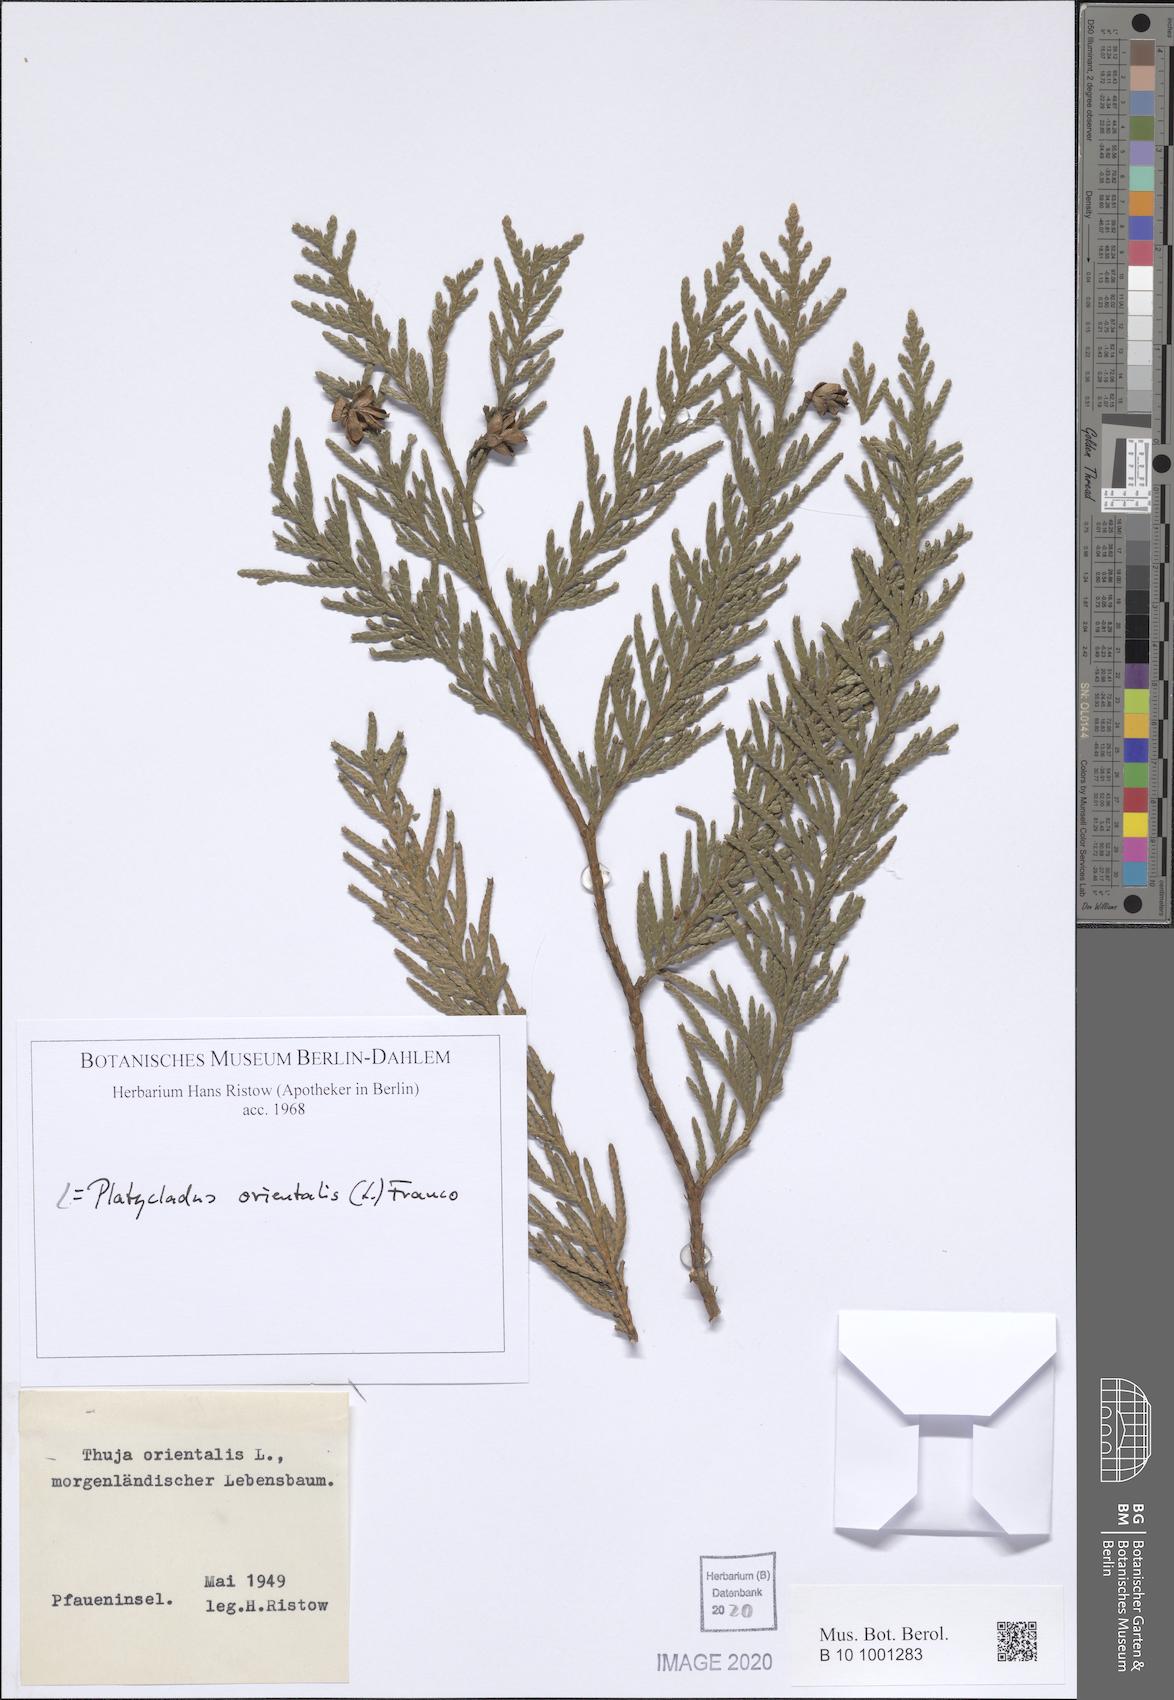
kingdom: Plantae
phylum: Tracheophyta
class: Pinopsida
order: Pinales
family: Cupressaceae
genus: Platycladus
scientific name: Platycladus orientalis
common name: Chinese thuja
